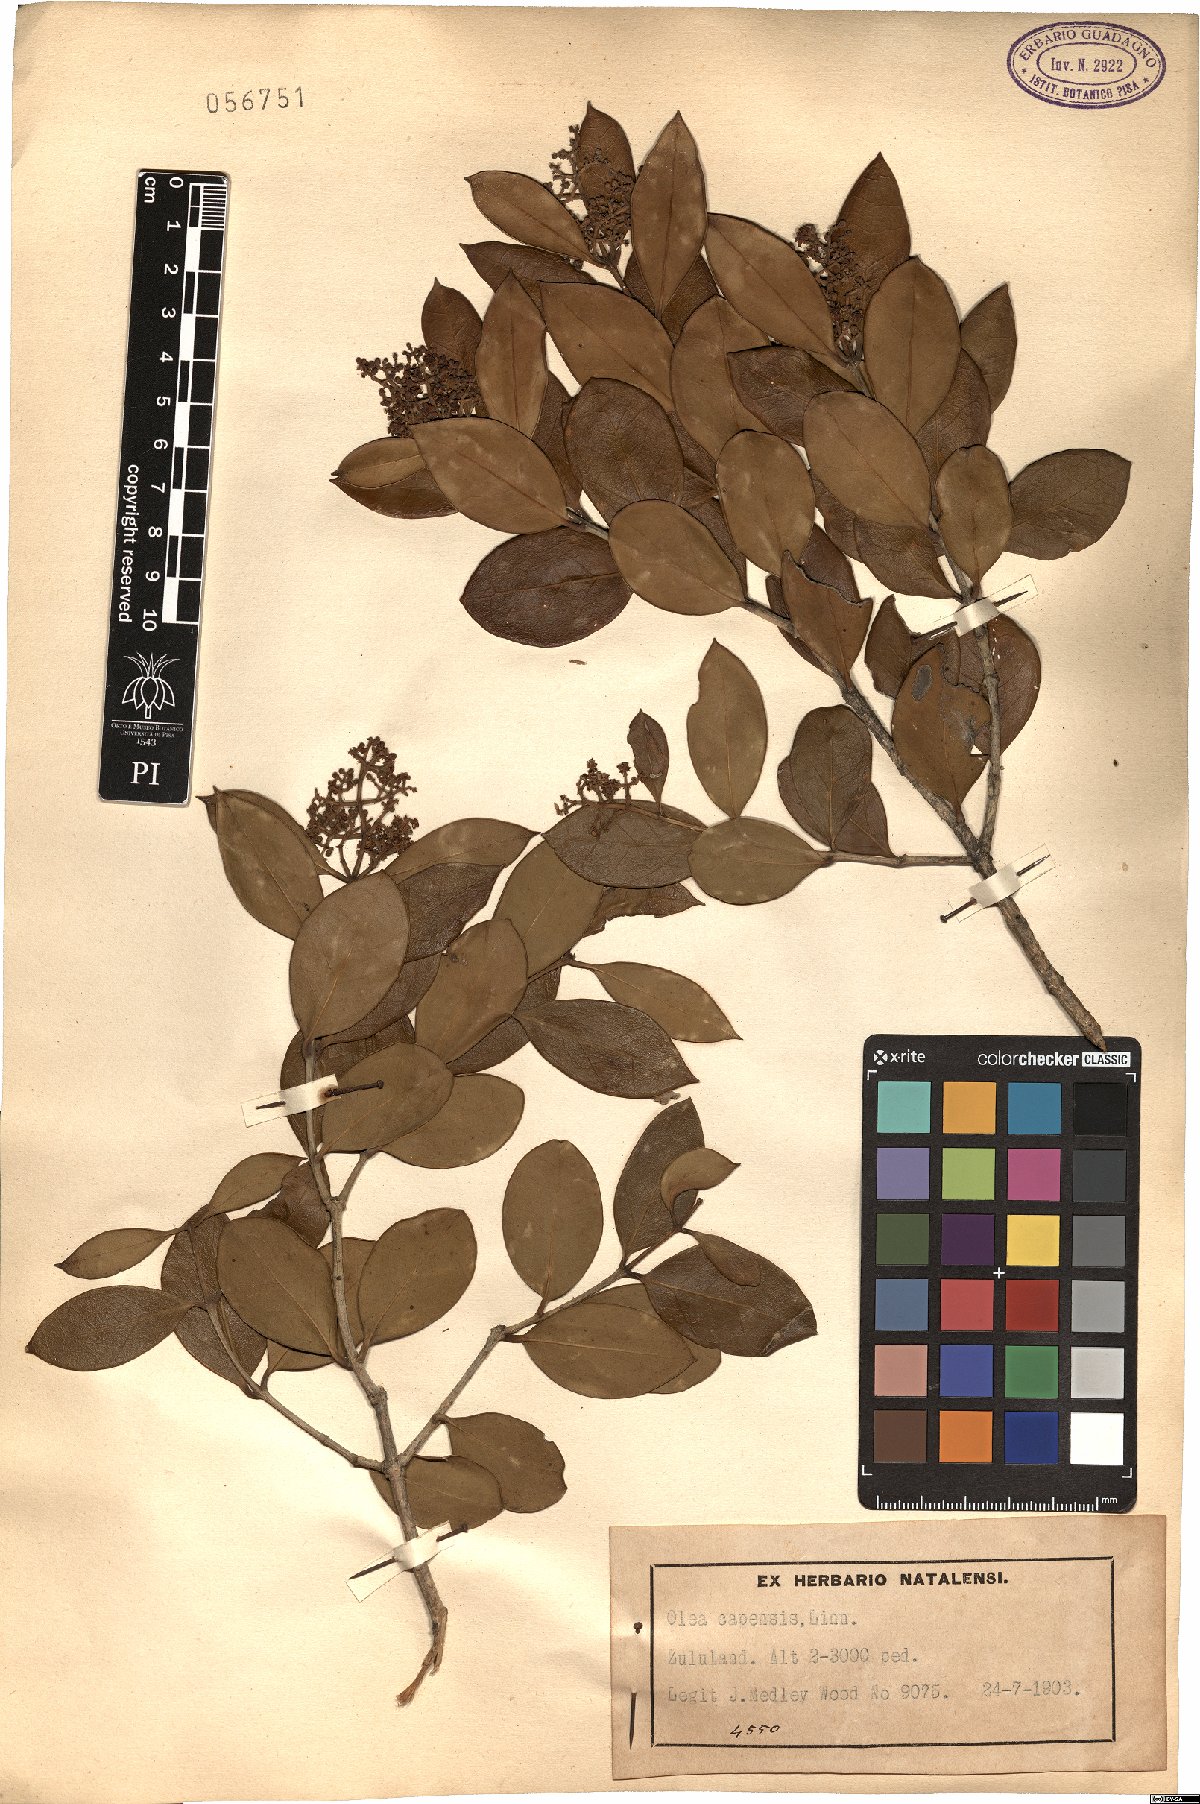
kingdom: Plantae
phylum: Tracheophyta
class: Magnoliopsida
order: Lamiales
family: Oleaceae
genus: Olea
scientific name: Olea capensis
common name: Black ironwood
